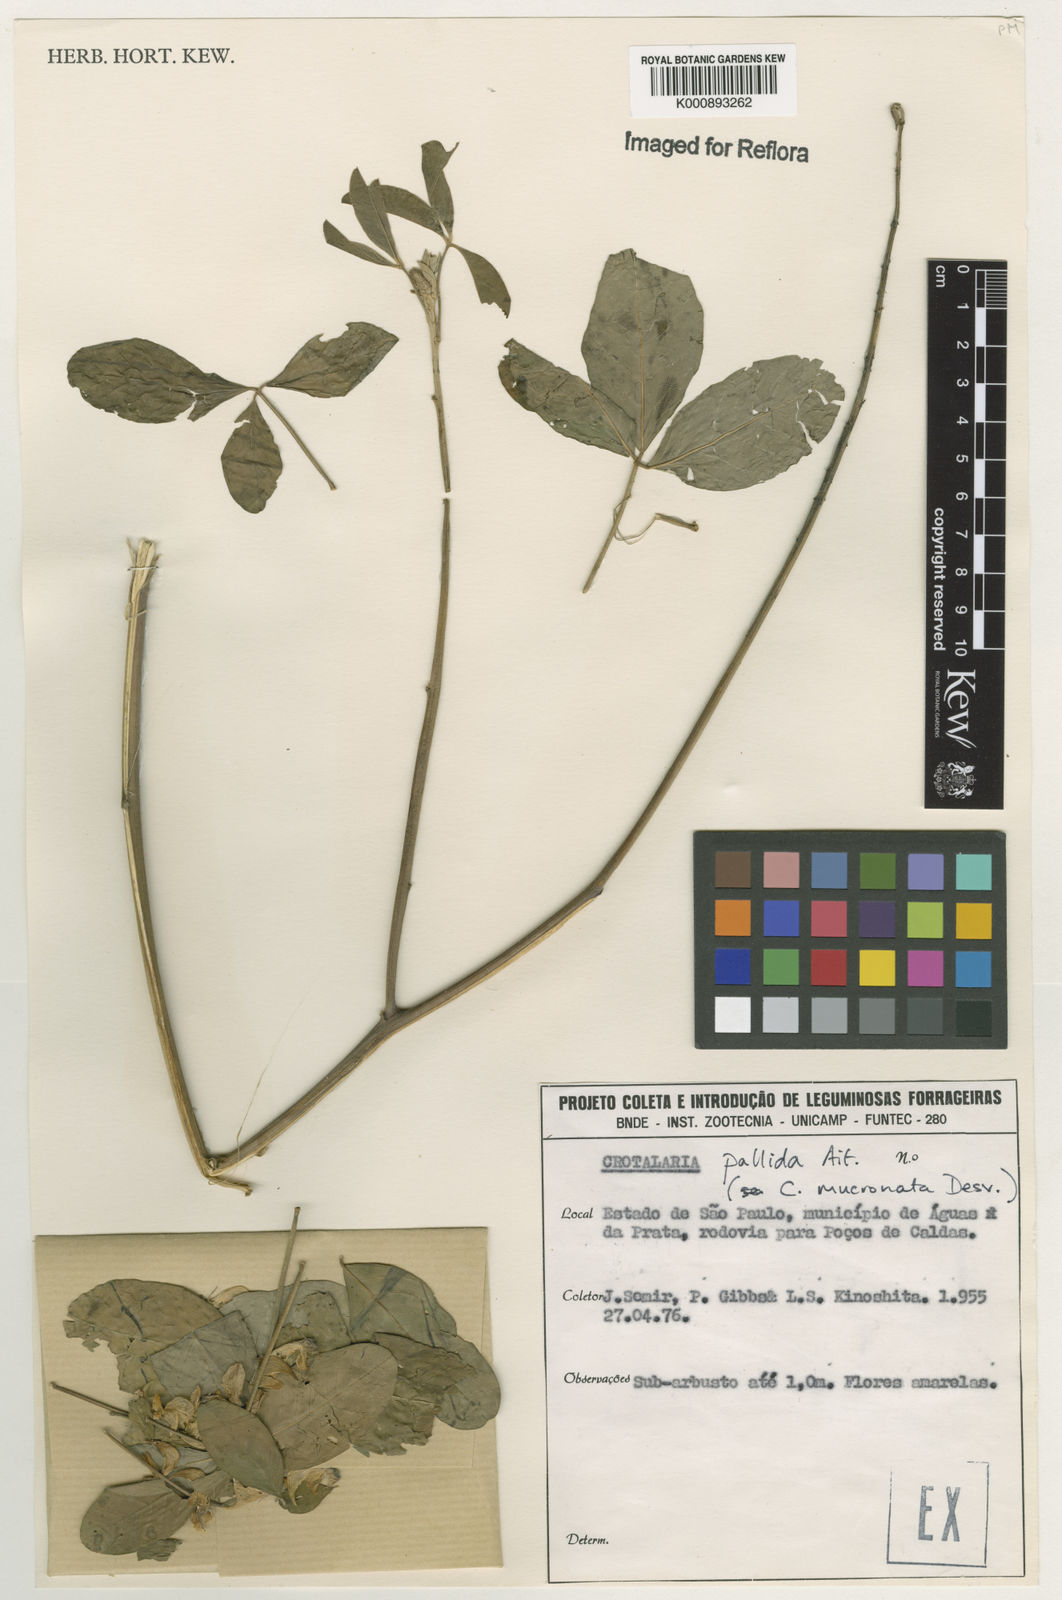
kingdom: Plantae
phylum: Tracheophyta
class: Magnoliopsida
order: Fabales
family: Fabaceae
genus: Crotalaria
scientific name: Crotalaria pallida
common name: Smooth rattlebox
